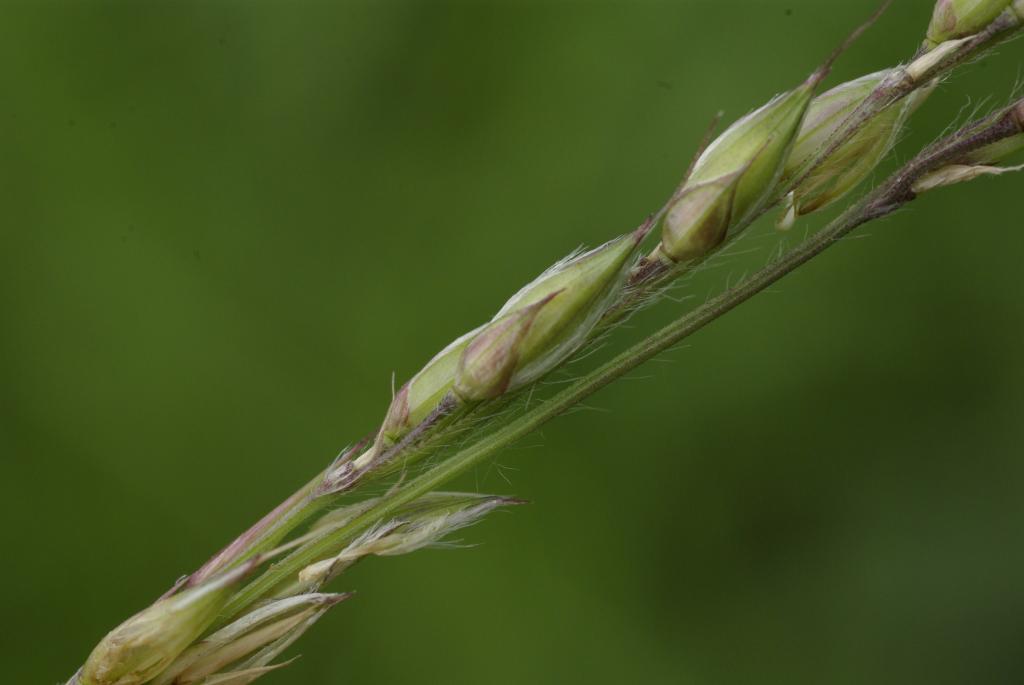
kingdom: Plantae
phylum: Tracheophyta
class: Liliopsida
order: Poales
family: Poaceae
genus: Alloteropsis
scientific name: Alloteropsis semialata
